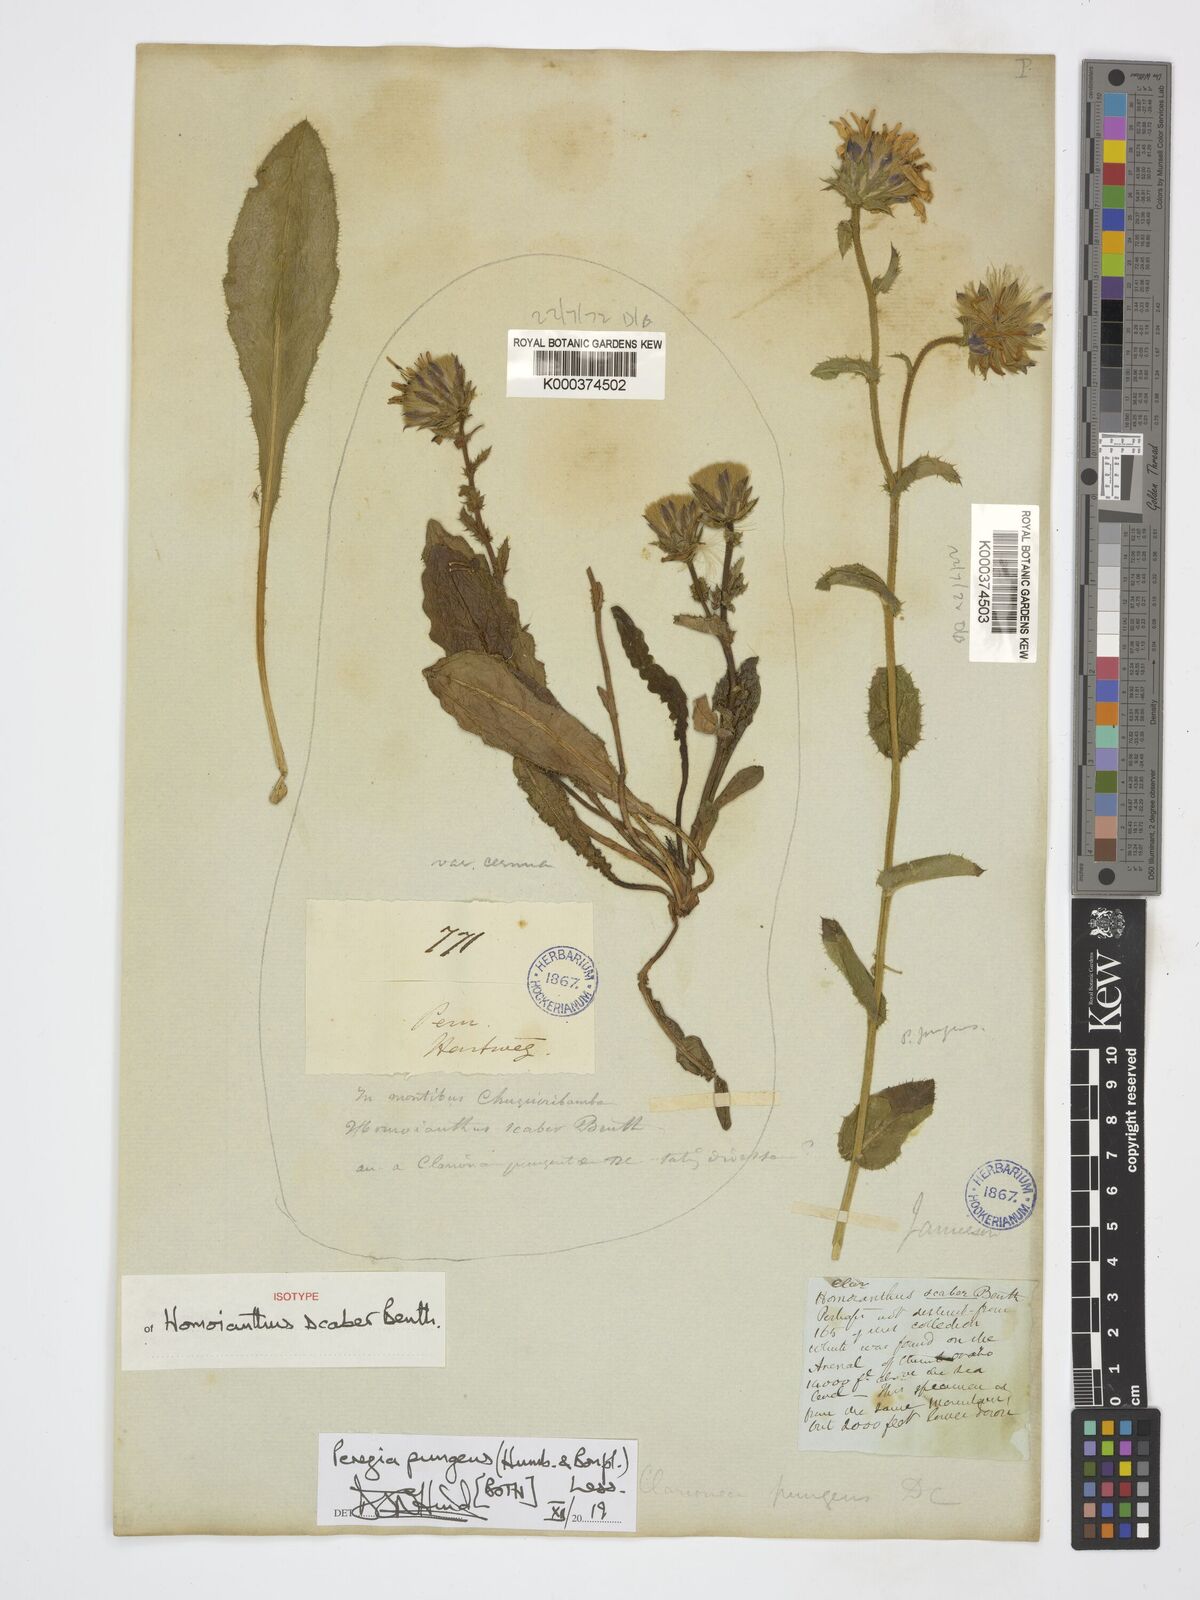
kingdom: Plantae
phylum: Tracheophyta
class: Magnoliopsida
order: Asterales
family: Asteraceae
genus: Perezia
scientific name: Perezia pungens
